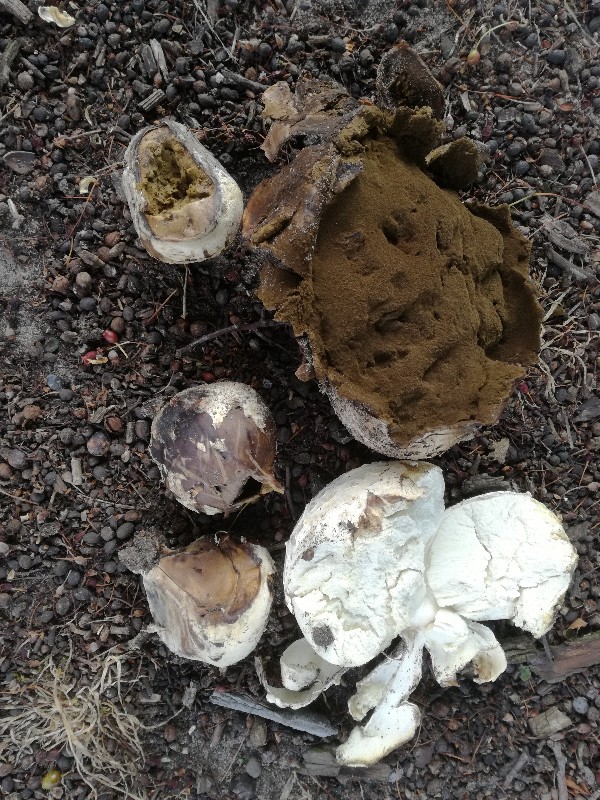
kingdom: Fungi
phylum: Basidiomycota
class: Agaricomycetes
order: Agaricales
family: Agaricaceae
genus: Mycenastrum
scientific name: Mycenastrum corium
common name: læderbold
